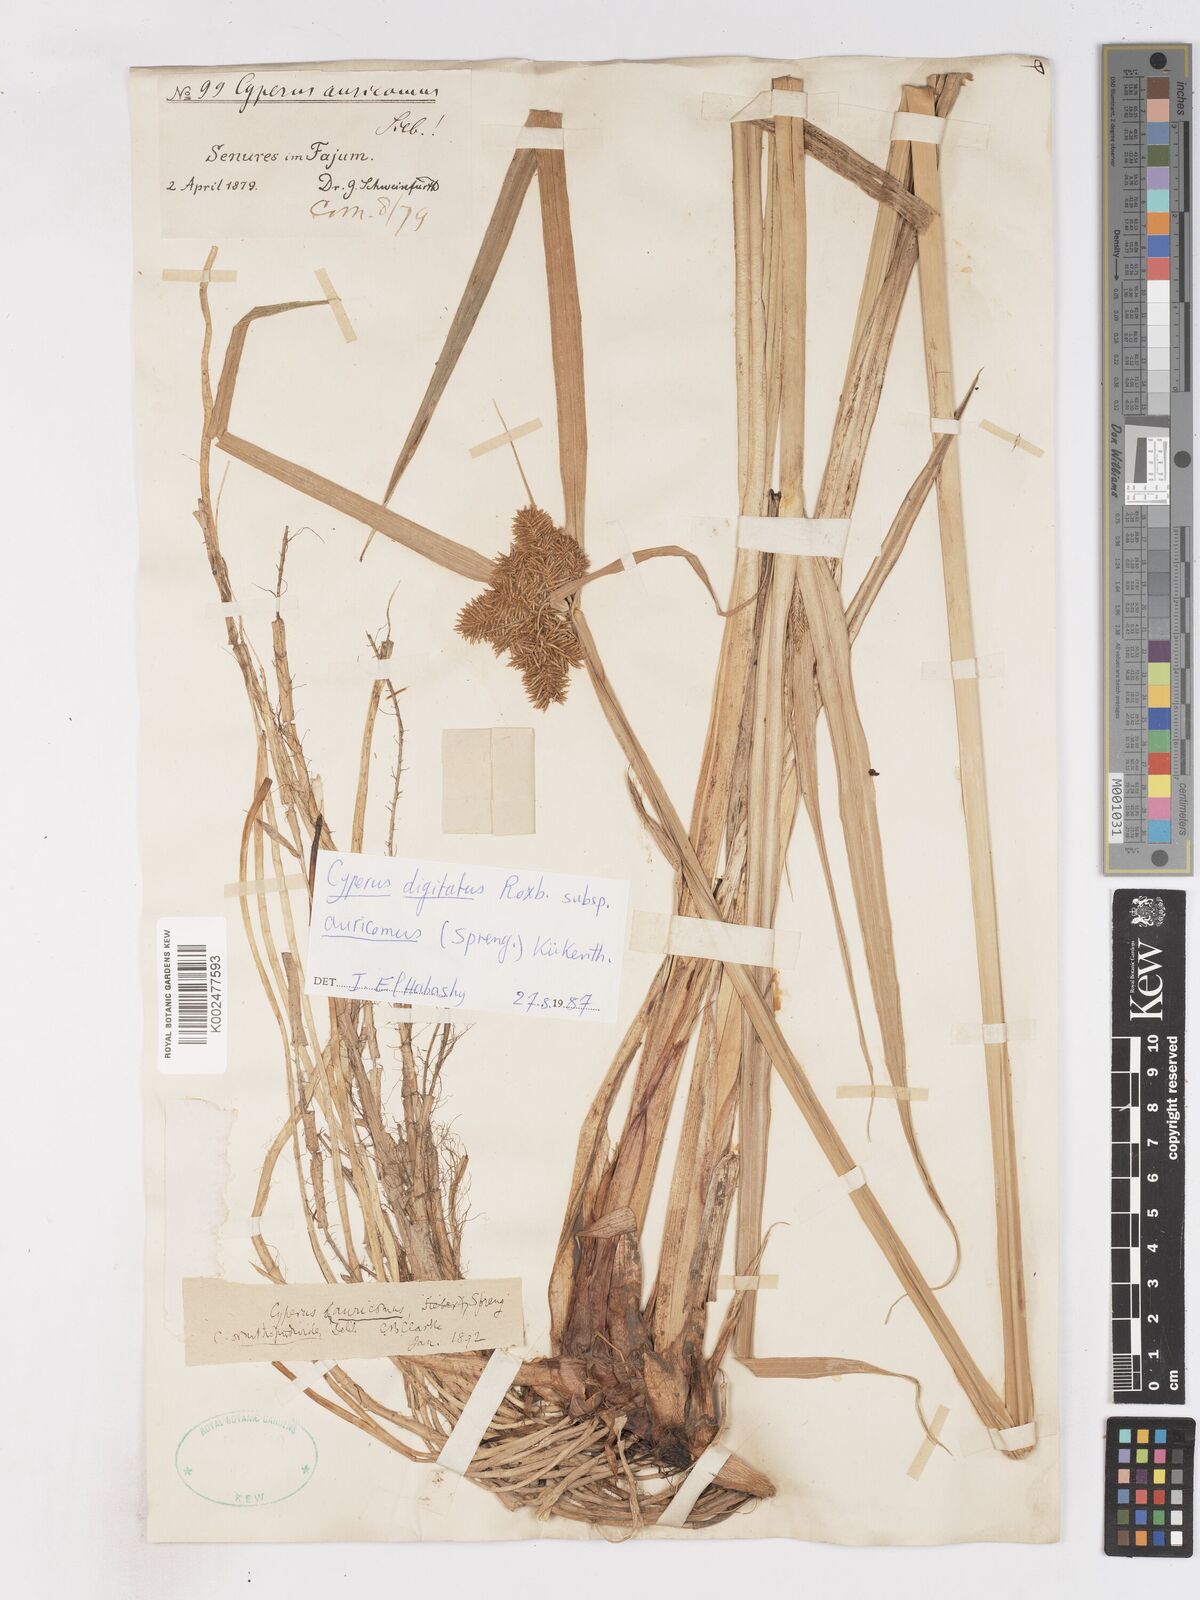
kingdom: Plantae
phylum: Tracheophyta
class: Liliopsida
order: Poales
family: Cyperaceae
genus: Cyperus
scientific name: Cyperus digitatus
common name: Finger flatsedge
